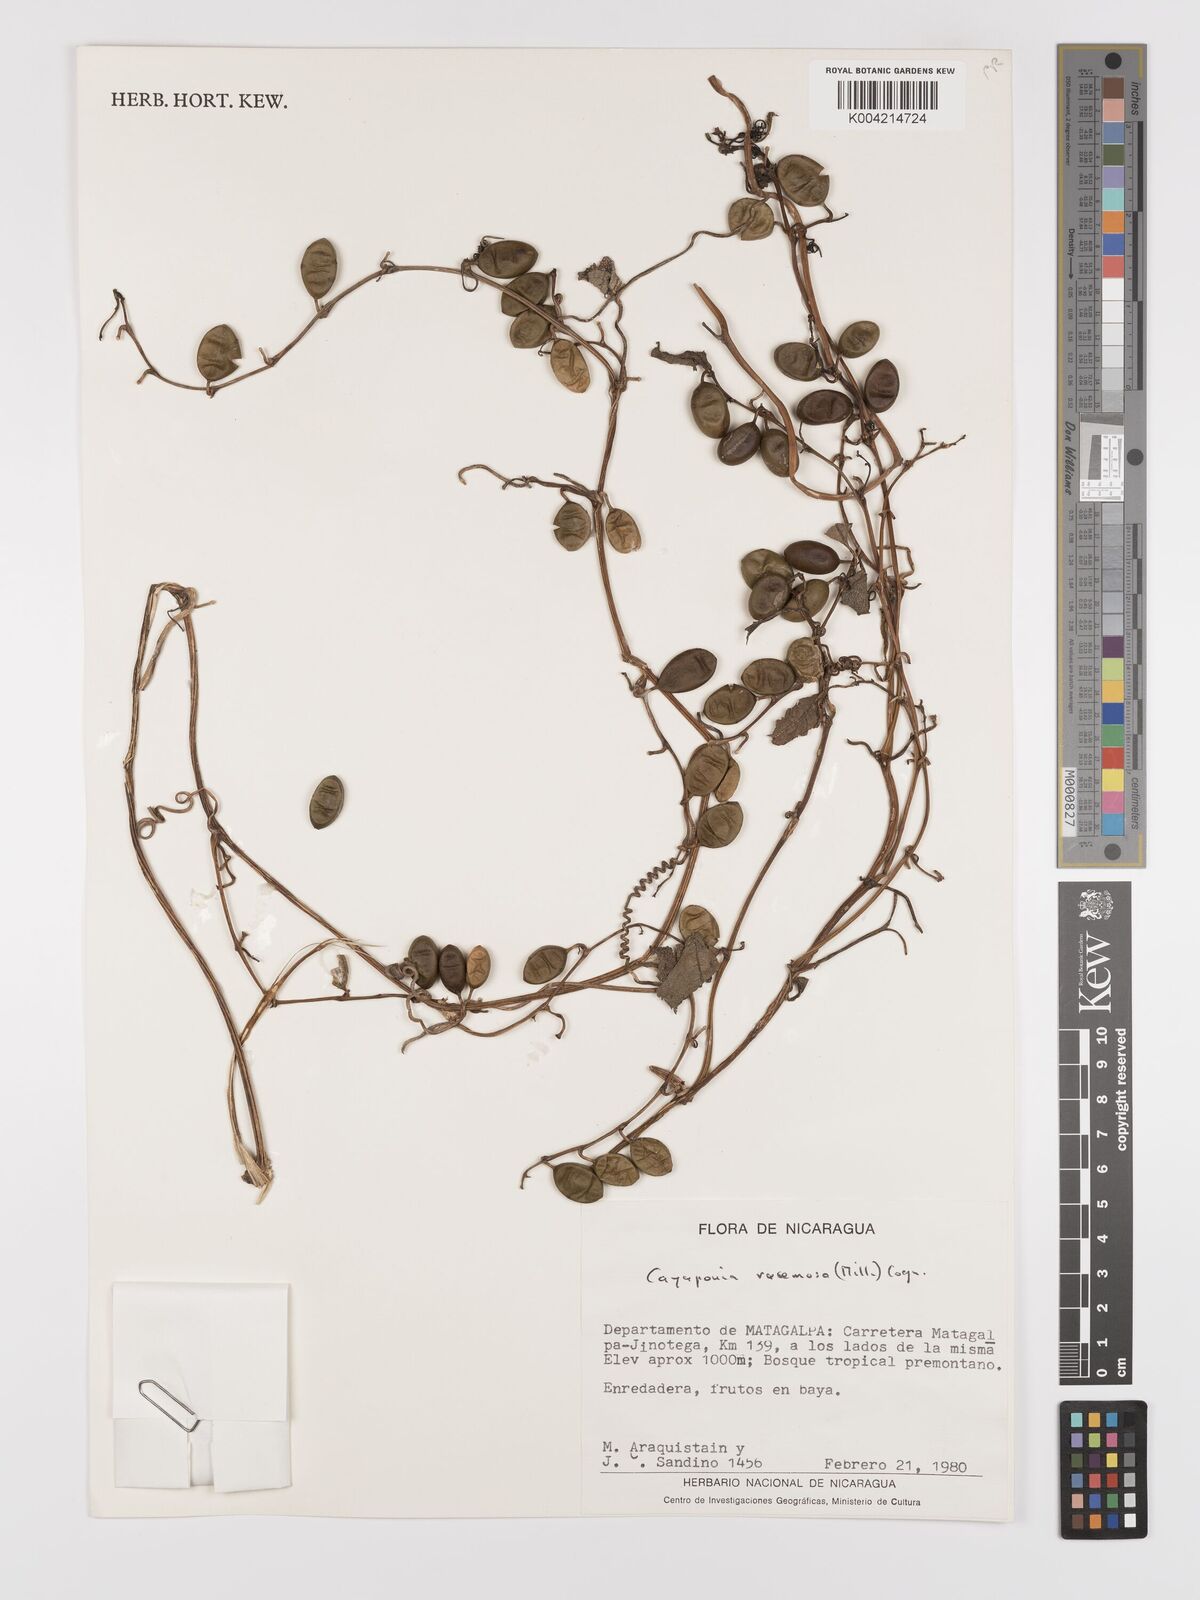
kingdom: Plantae
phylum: Tracheophyta
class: Magnoliopsida
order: Cucurbitales
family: Cucurbitaceae
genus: Cayaponia
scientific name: Cayaponia racemosa
